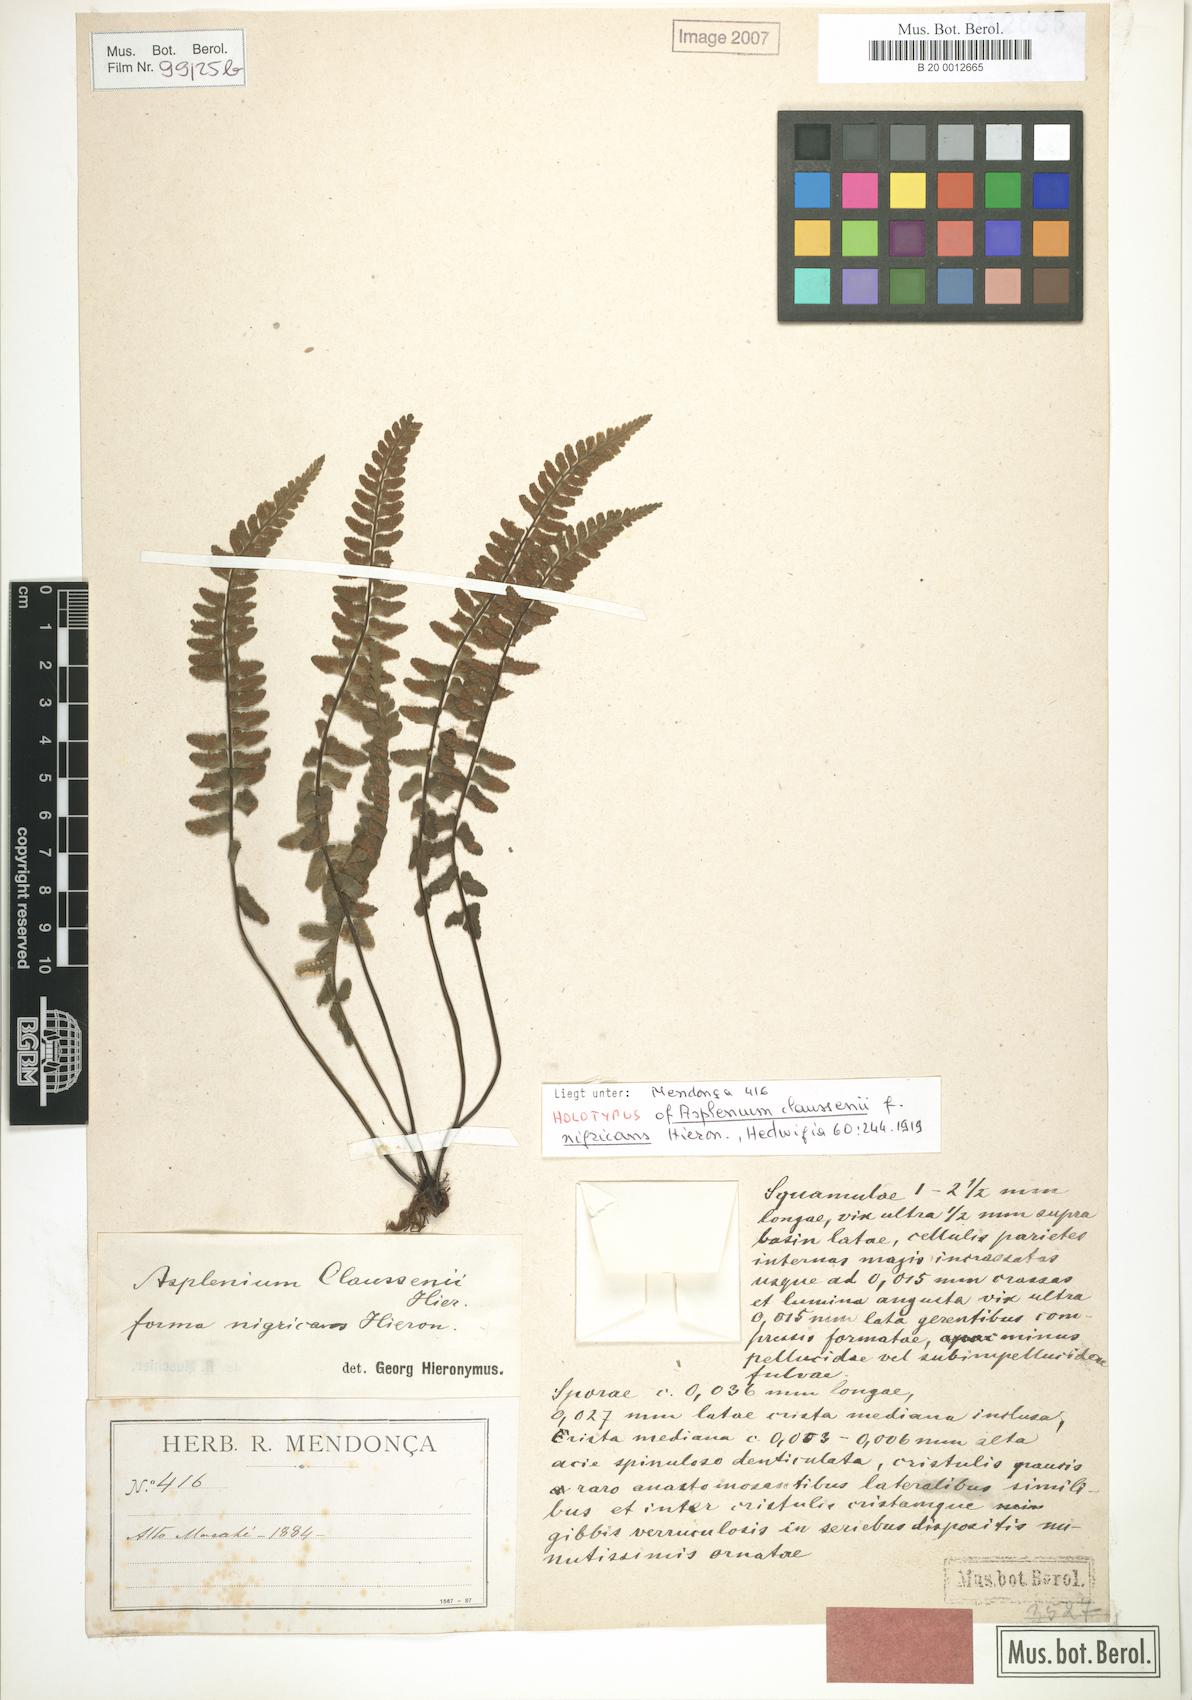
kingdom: Plantae
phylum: Tracheophyta
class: Polypodiopsida
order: Polypodiales
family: Aspleniaceae
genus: Asplenium
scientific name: Asplenium claussenii
